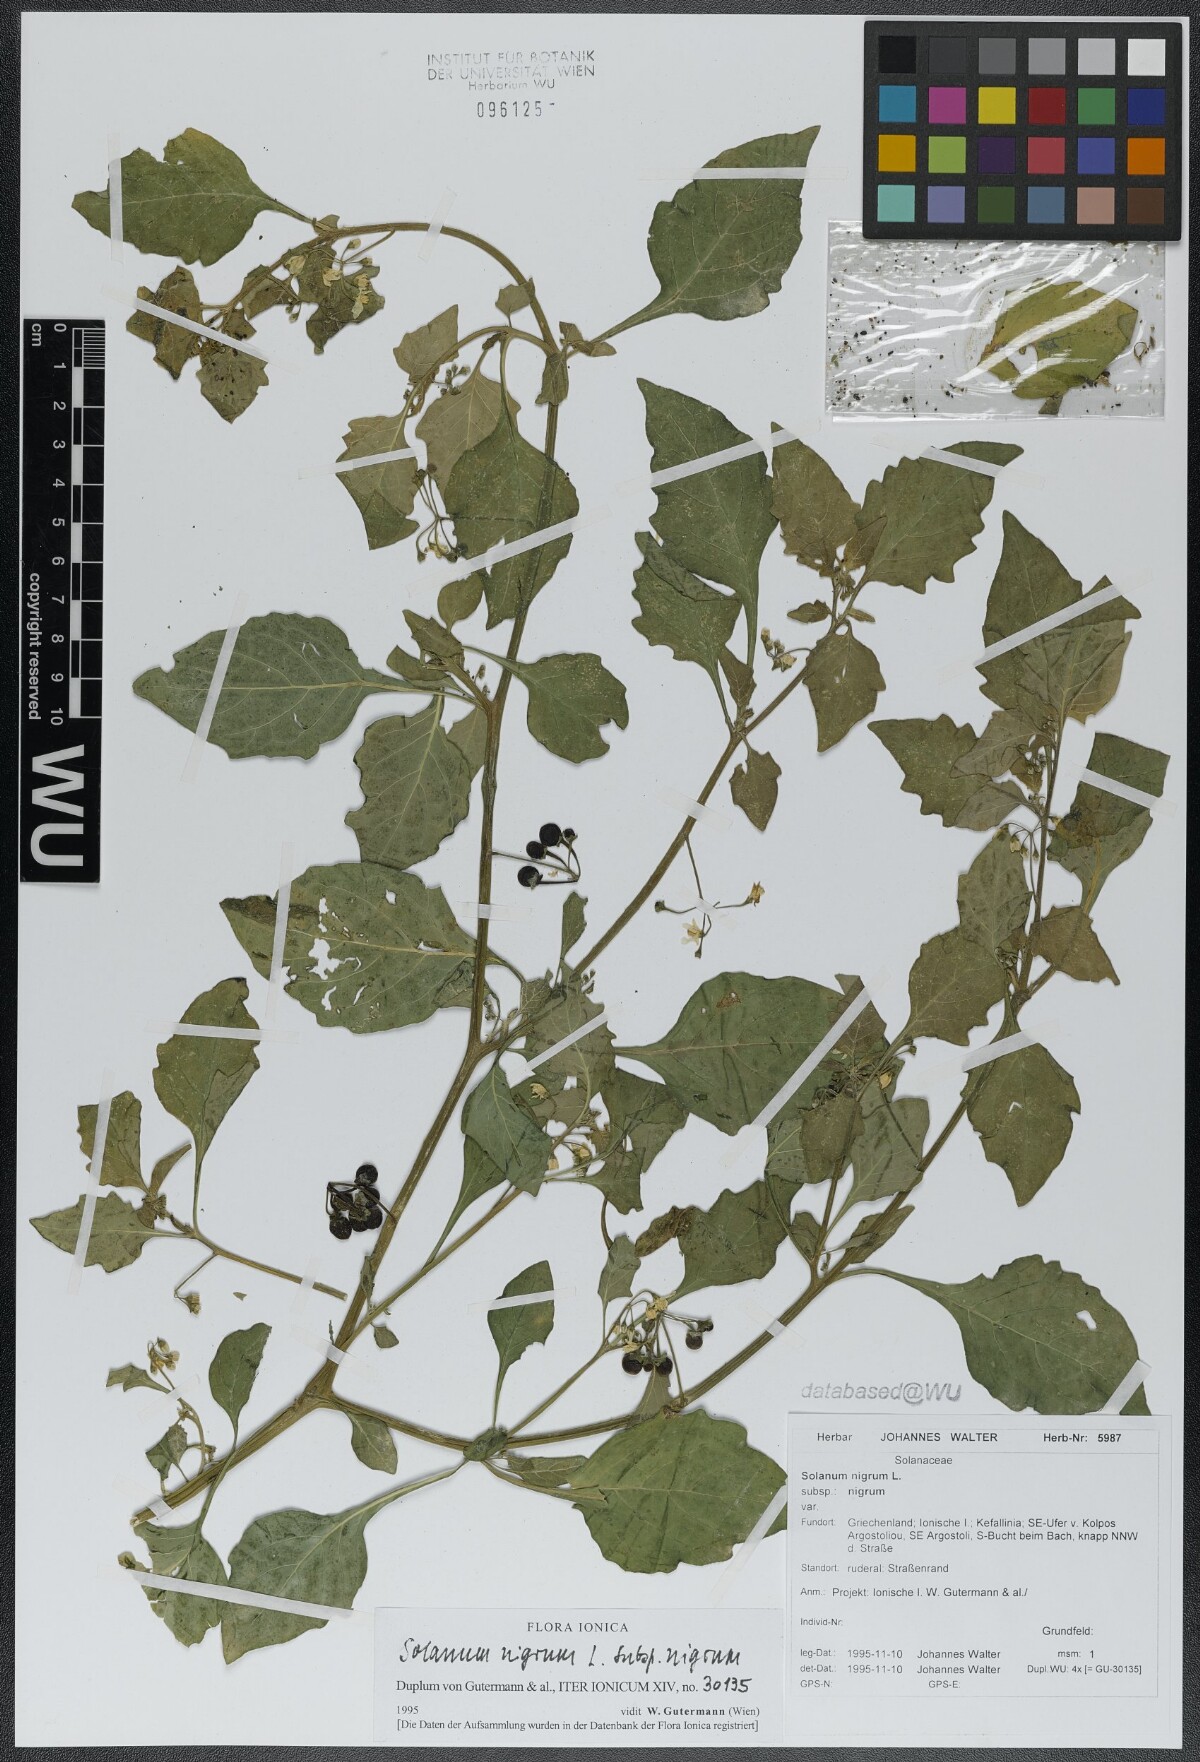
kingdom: Plantae
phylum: Tracheophyta
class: Magnoliopsida
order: Solanales
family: Solanaceae
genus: Solanum
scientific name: Solanum nigrum
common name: Black nightshade
